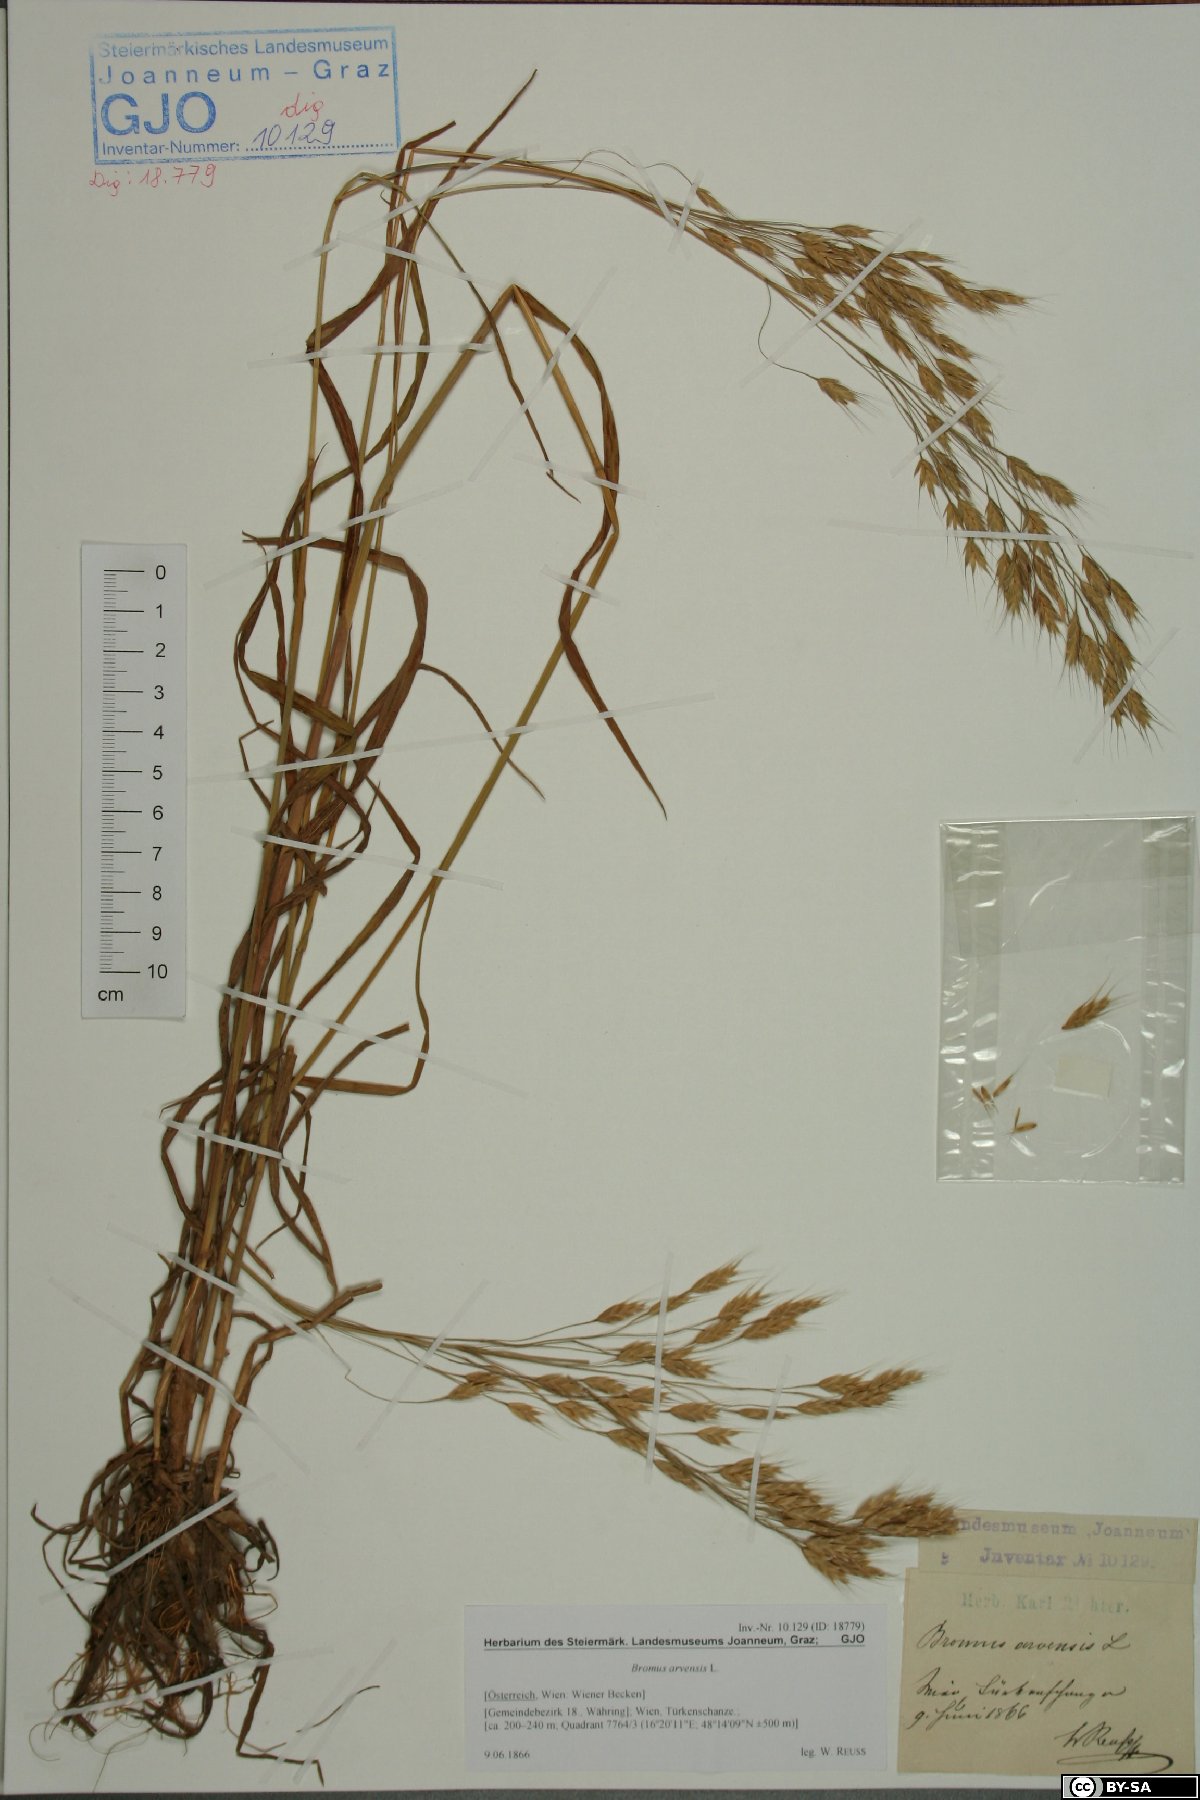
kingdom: Plantae
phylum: Tracheophyta
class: Liliopsida
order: Poales
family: Poaceae
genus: Bromus
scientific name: Bromus arvensis
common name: Field brome
